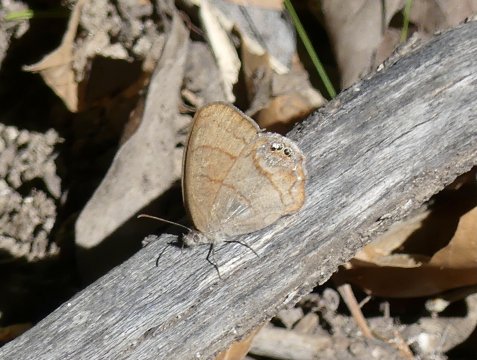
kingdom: Animalia
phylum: Arthropoda
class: Insecta
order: Lepidoptera
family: Nymphalidae
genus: Euptychia
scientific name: Euptychia pyracmon
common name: Nabokov's Satyr
